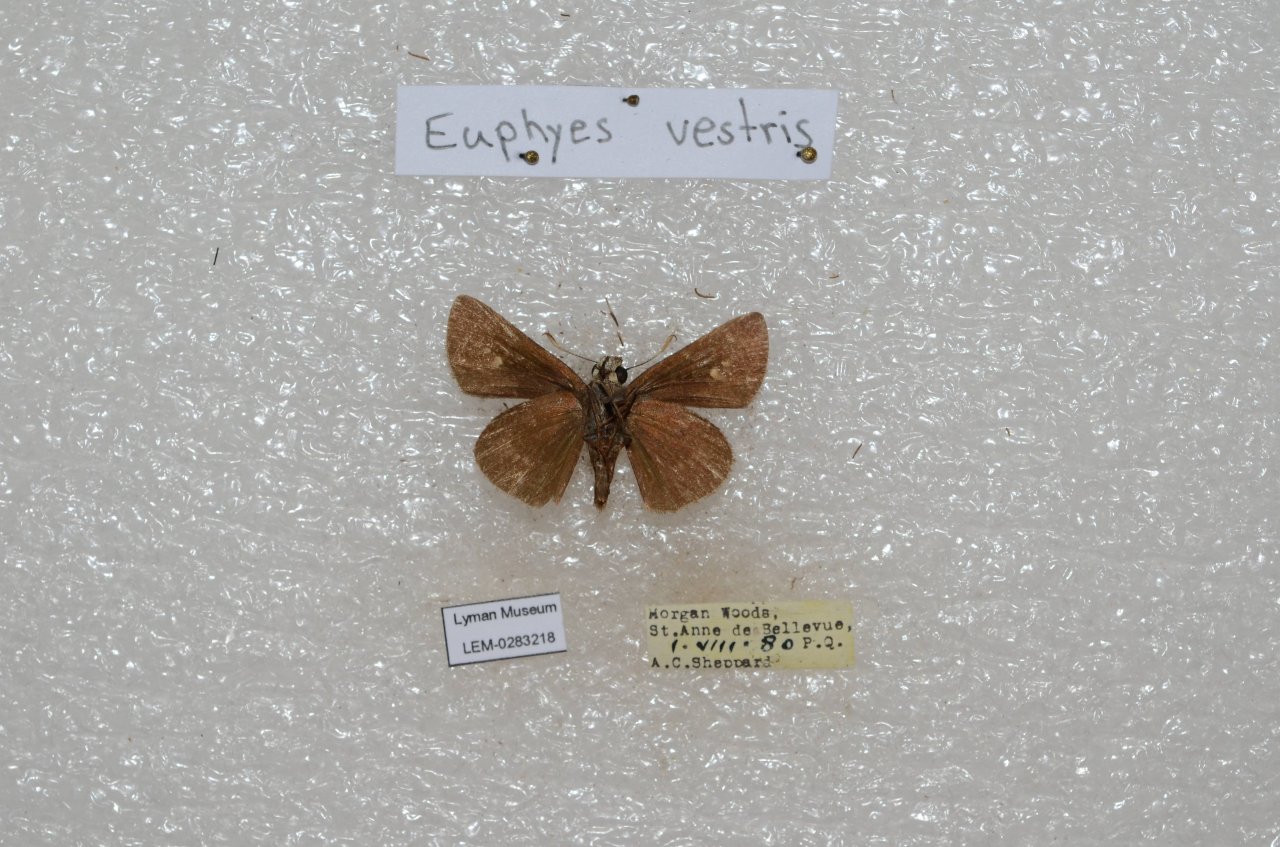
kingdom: Animalia
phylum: Arthropoda
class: Insecta
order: Lepidoptera
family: Hesperiidae
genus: Euphyes
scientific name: Euphyes vestris
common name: Dun Skipper
